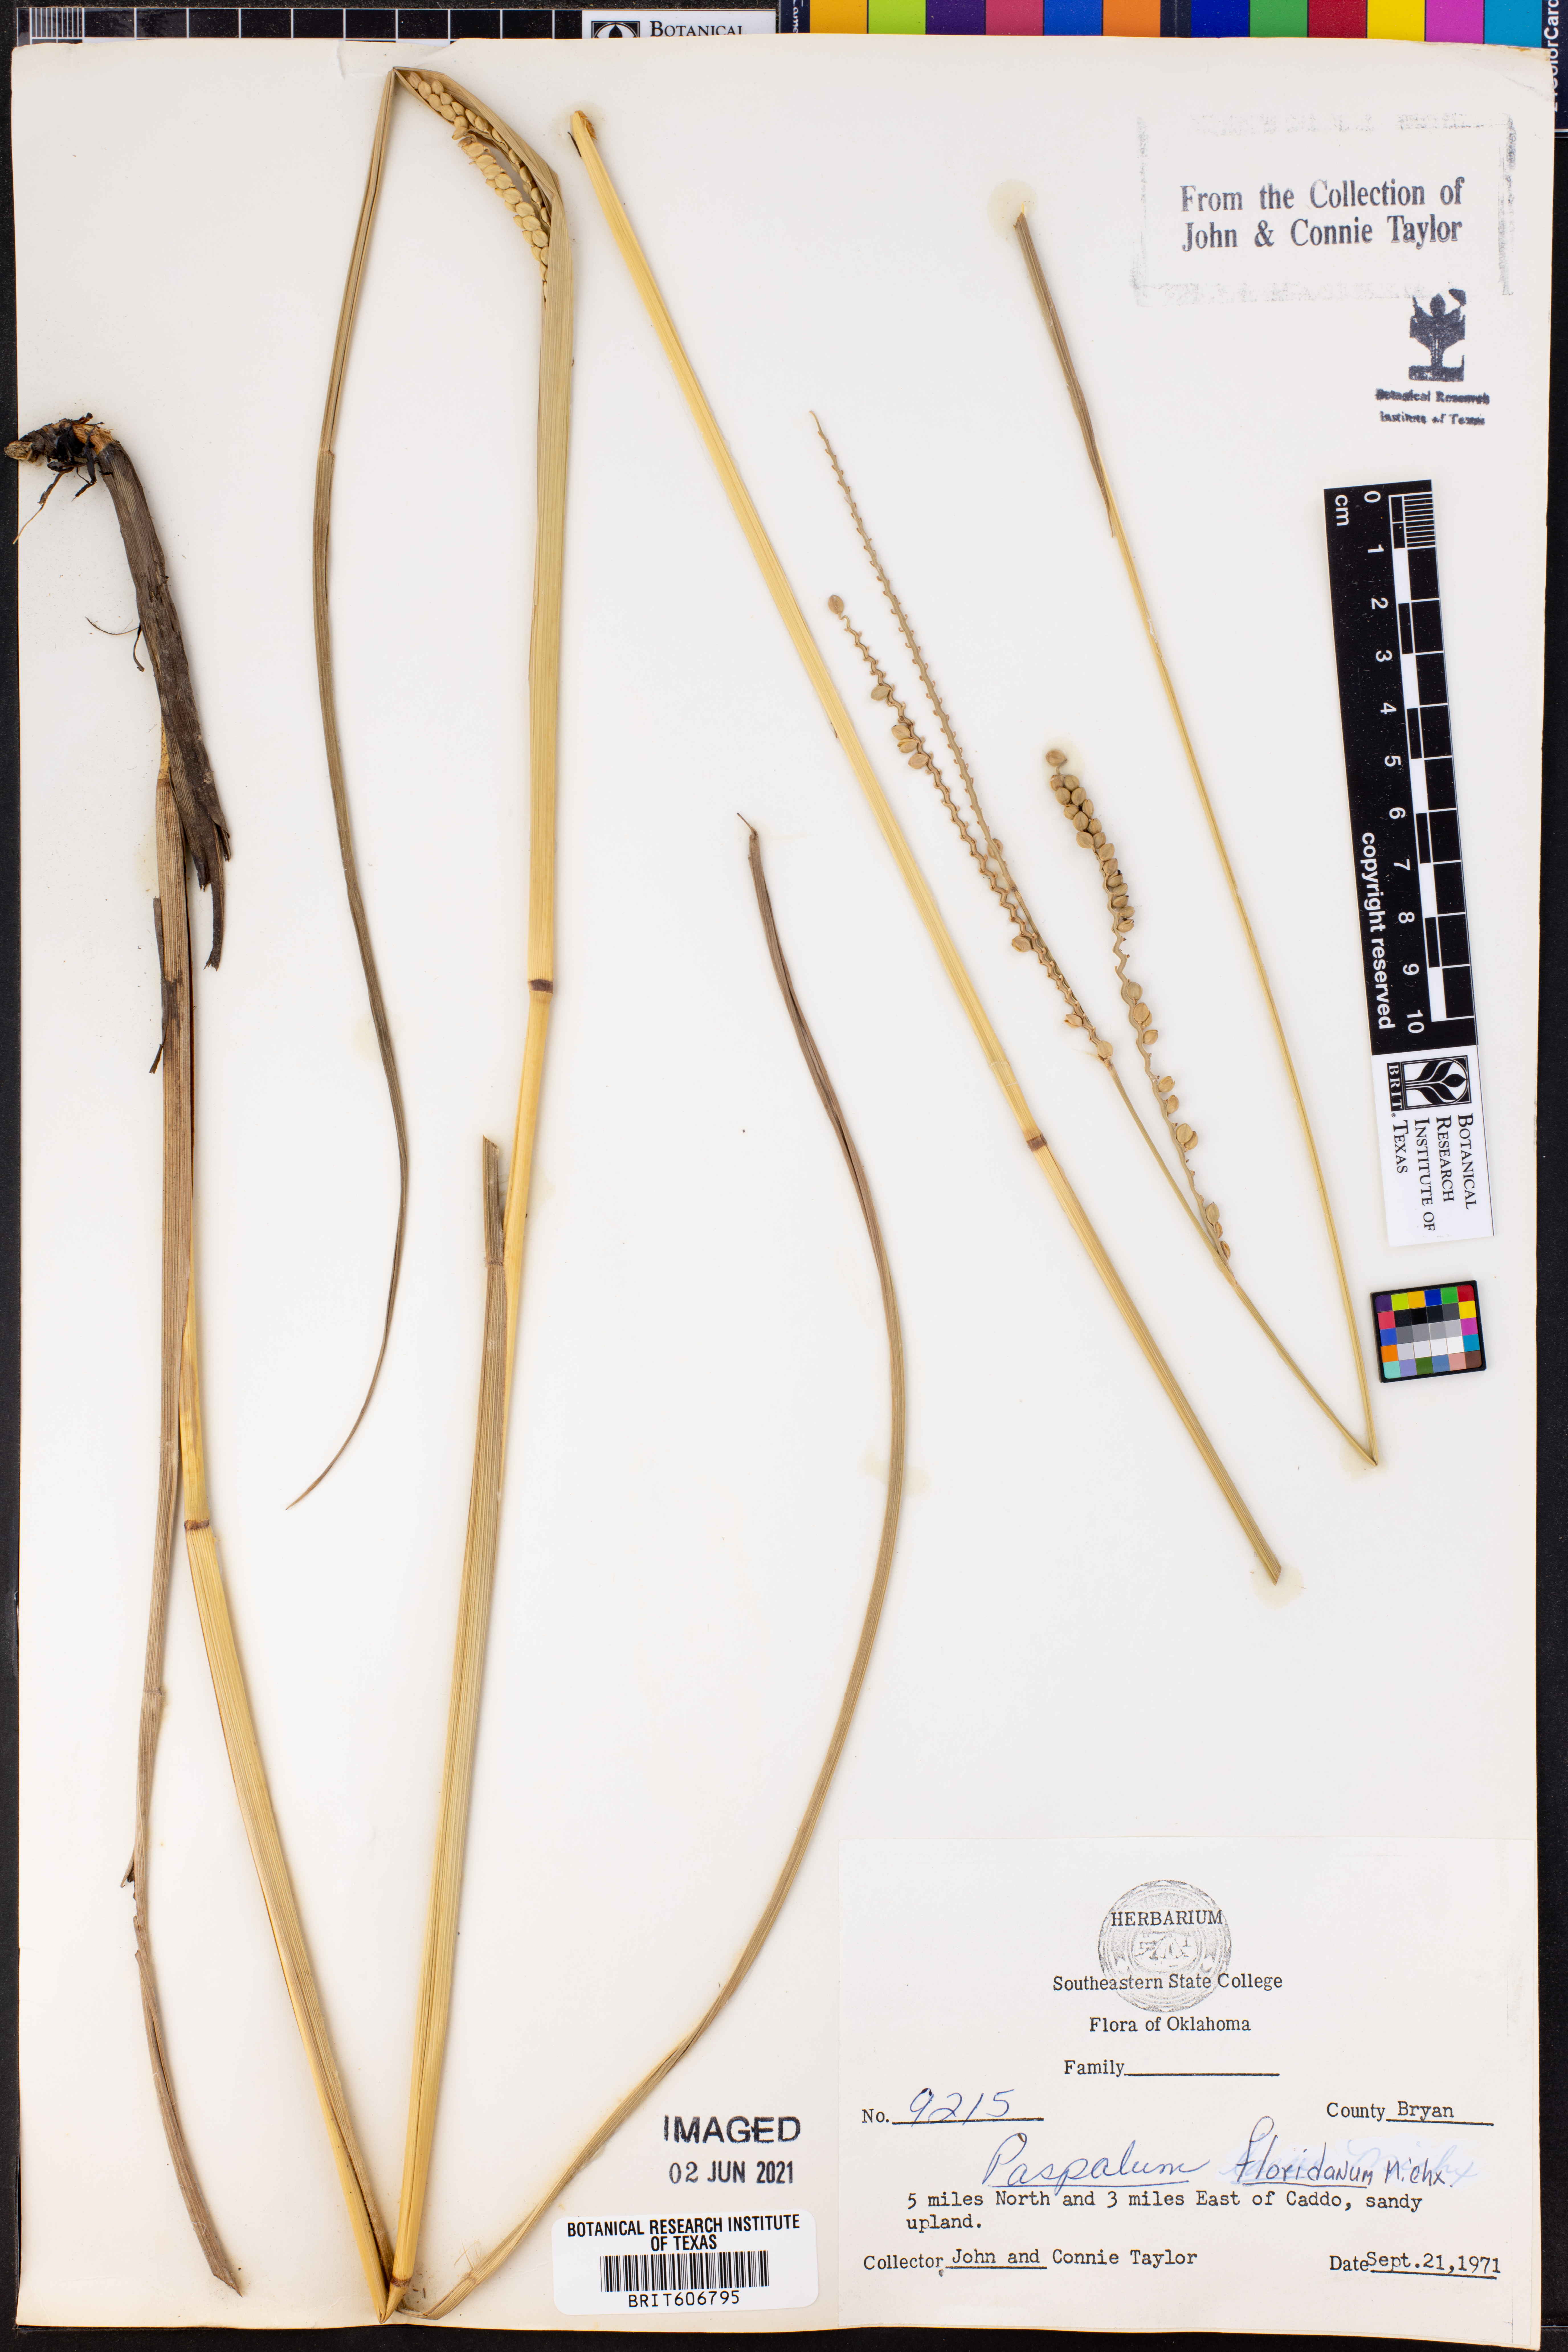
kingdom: Plantae
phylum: Tracheophyta
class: Liliopsida
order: Poales
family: Poaceae
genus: Paspalum
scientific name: Paspalum floridanum
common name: Florida paspalum
